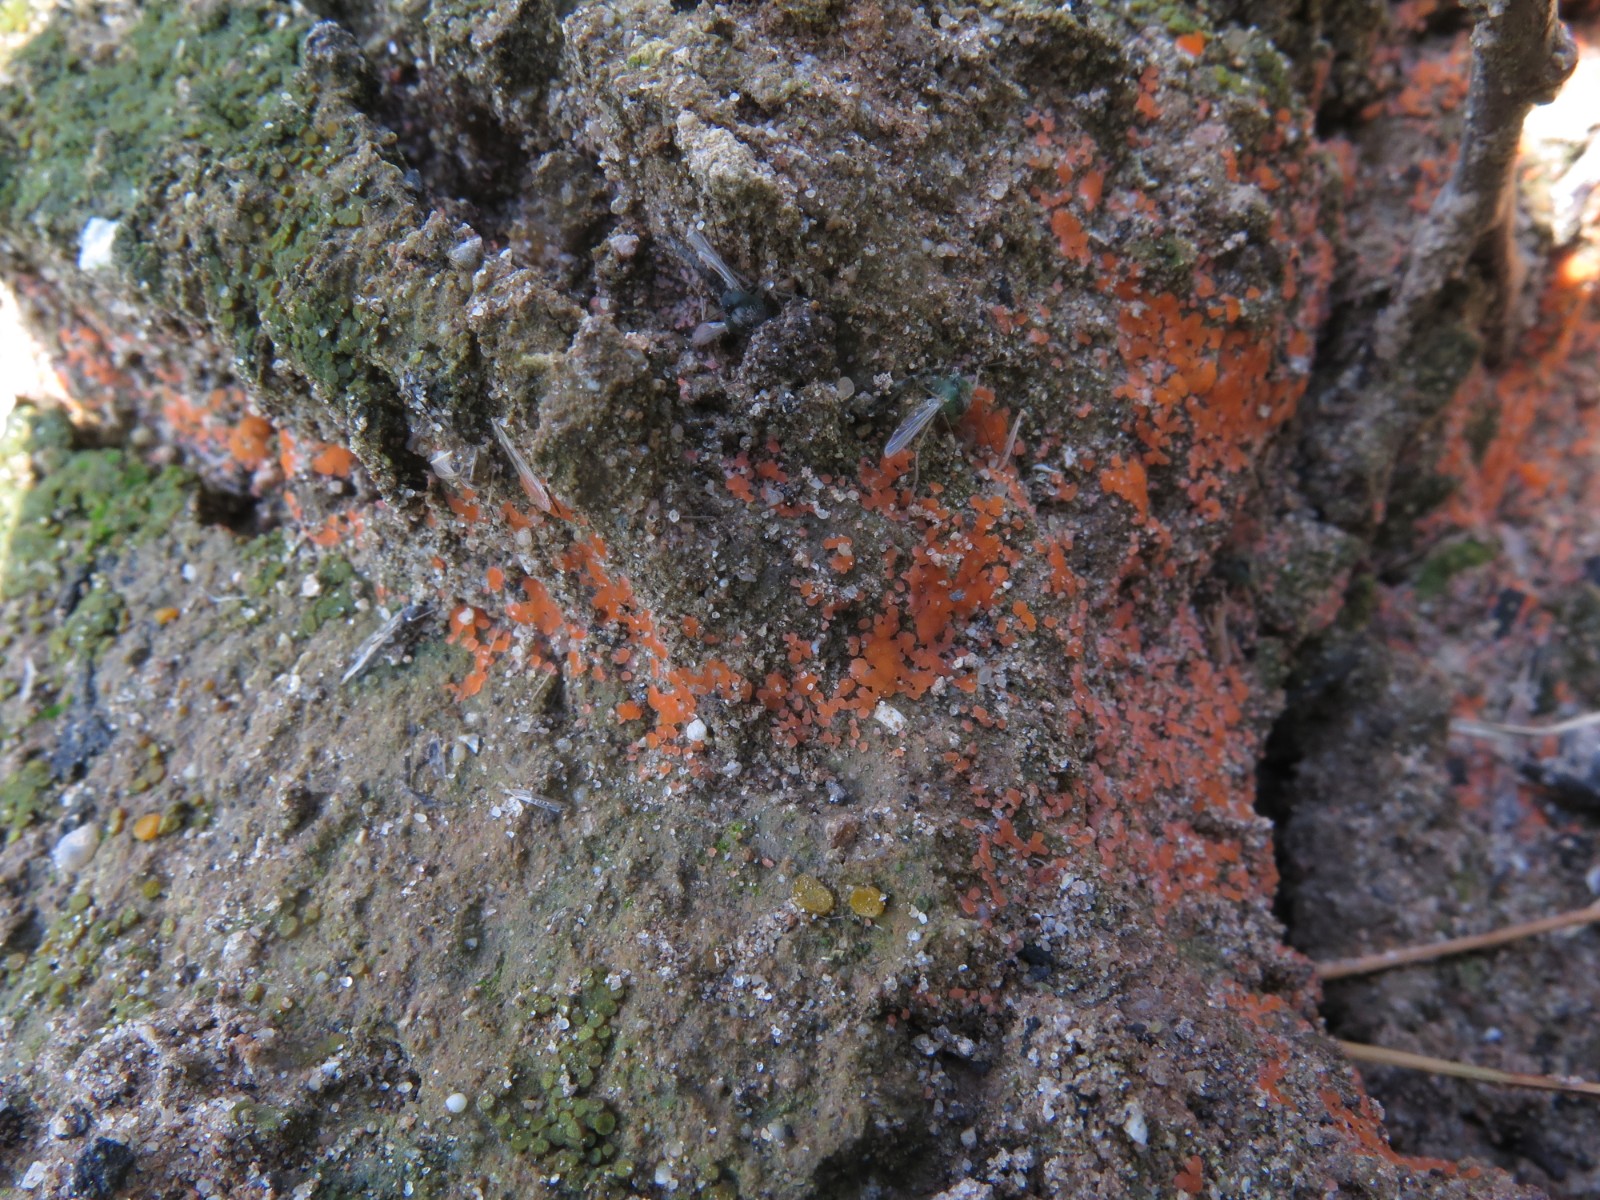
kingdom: Fungi
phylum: Ascomycota
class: Pezizomycetes
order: Pezizales
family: Pyronemataceae
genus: Pyronema
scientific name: Pyronema omphalodes
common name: glat askebæger
